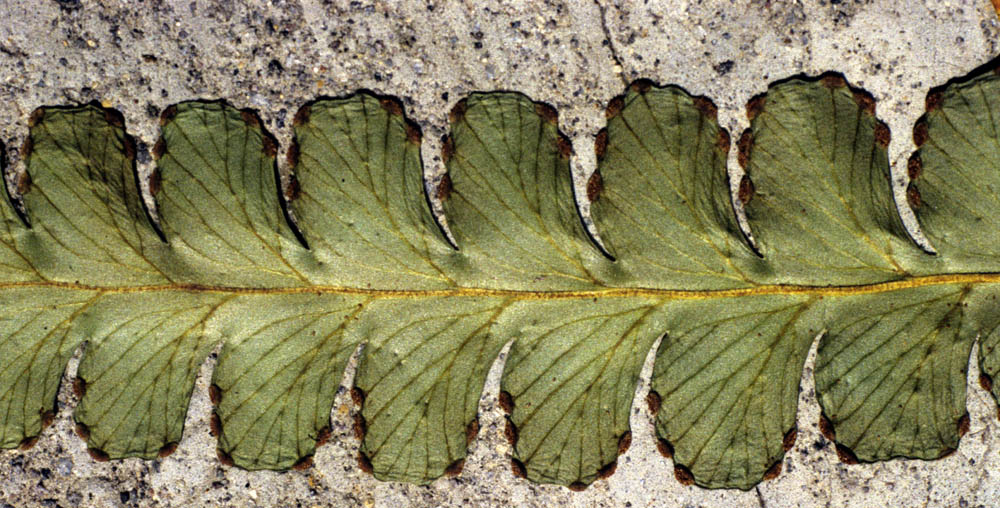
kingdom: Plantae
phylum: Tracheophyta
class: Polypodiopsida
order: Polypodiales
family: Dennstaedtiaceae
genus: Dennstaedtia
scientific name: Dennstaedtia paucirrhiza
